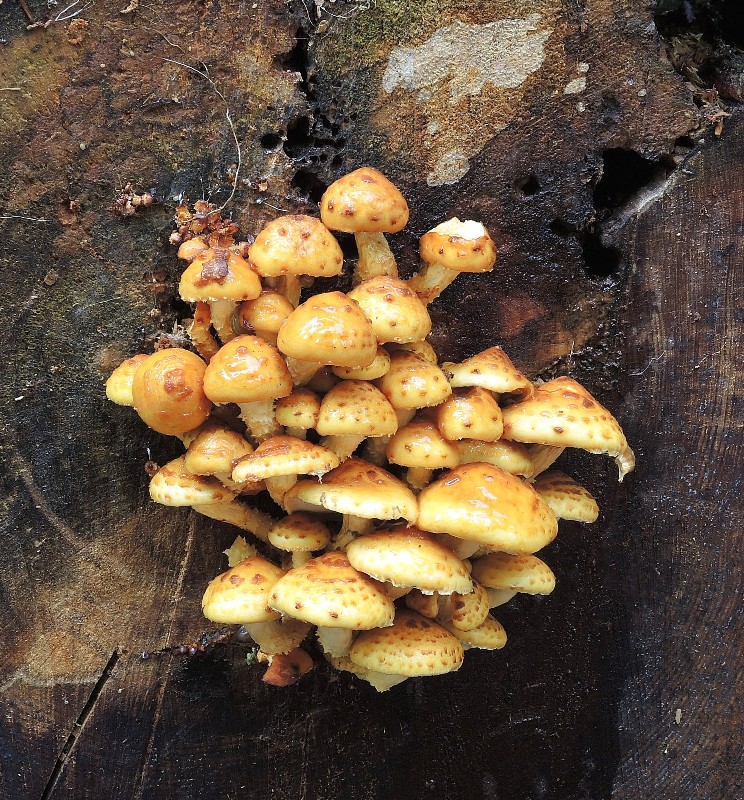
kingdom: Fungi
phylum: Basidiomycota
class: Agaricomycetes
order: Agaricales
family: Strophariaceae
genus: Pholiota
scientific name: Pholiota adiposa
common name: højtsiddende skælhat
